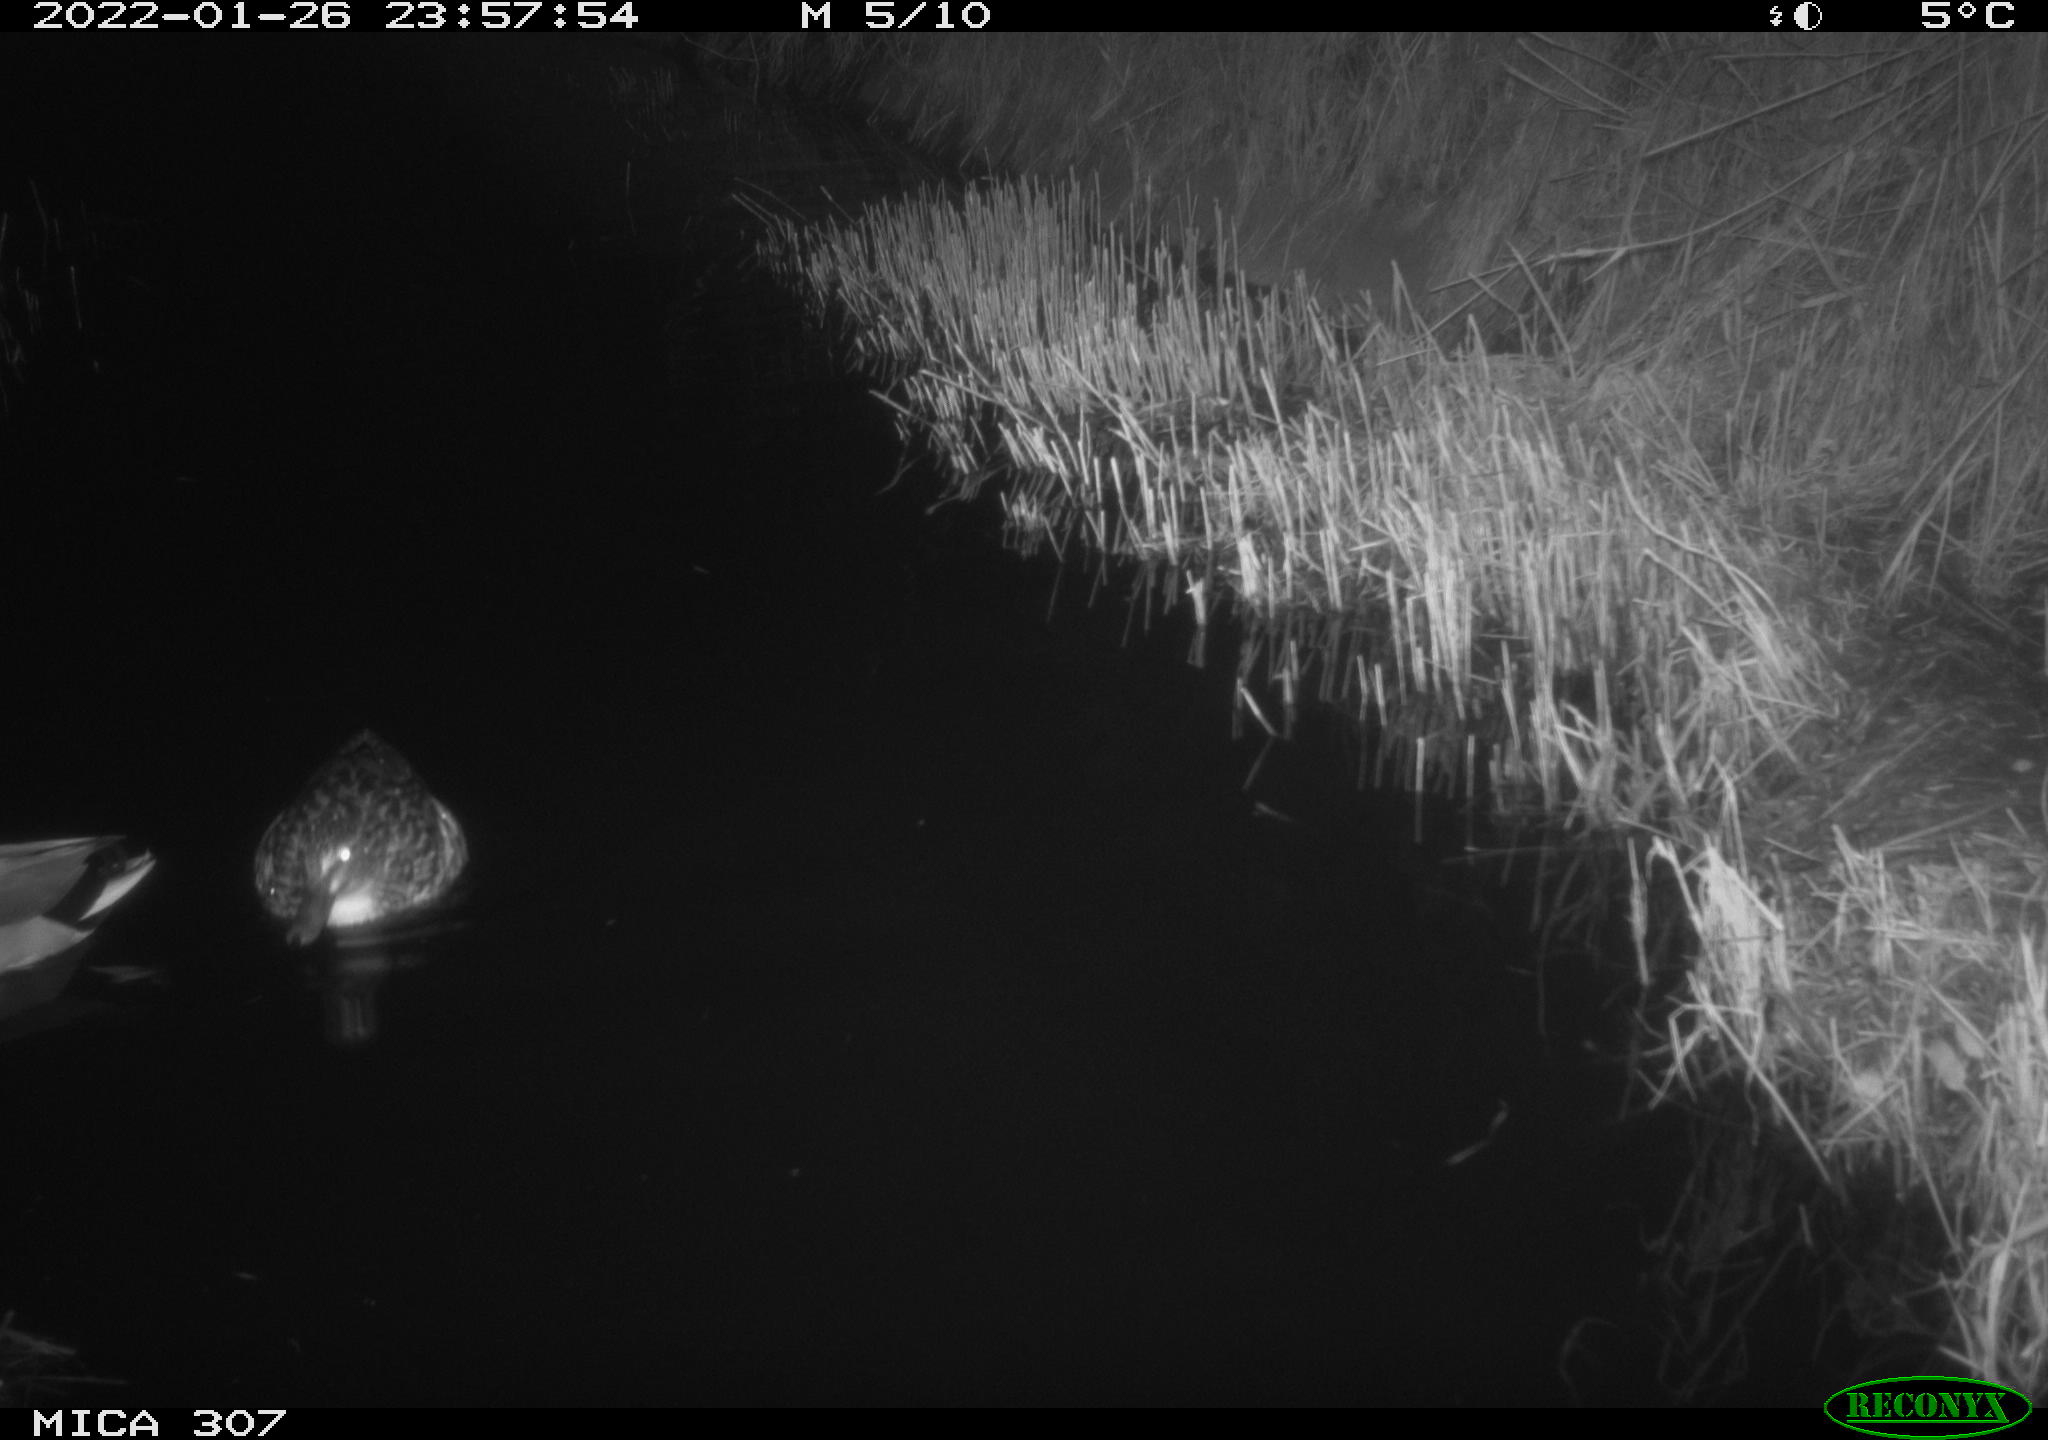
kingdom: Animalia
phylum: Chordata
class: Aves
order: Anseriformes
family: Anatidae
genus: Anas
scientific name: Anas
